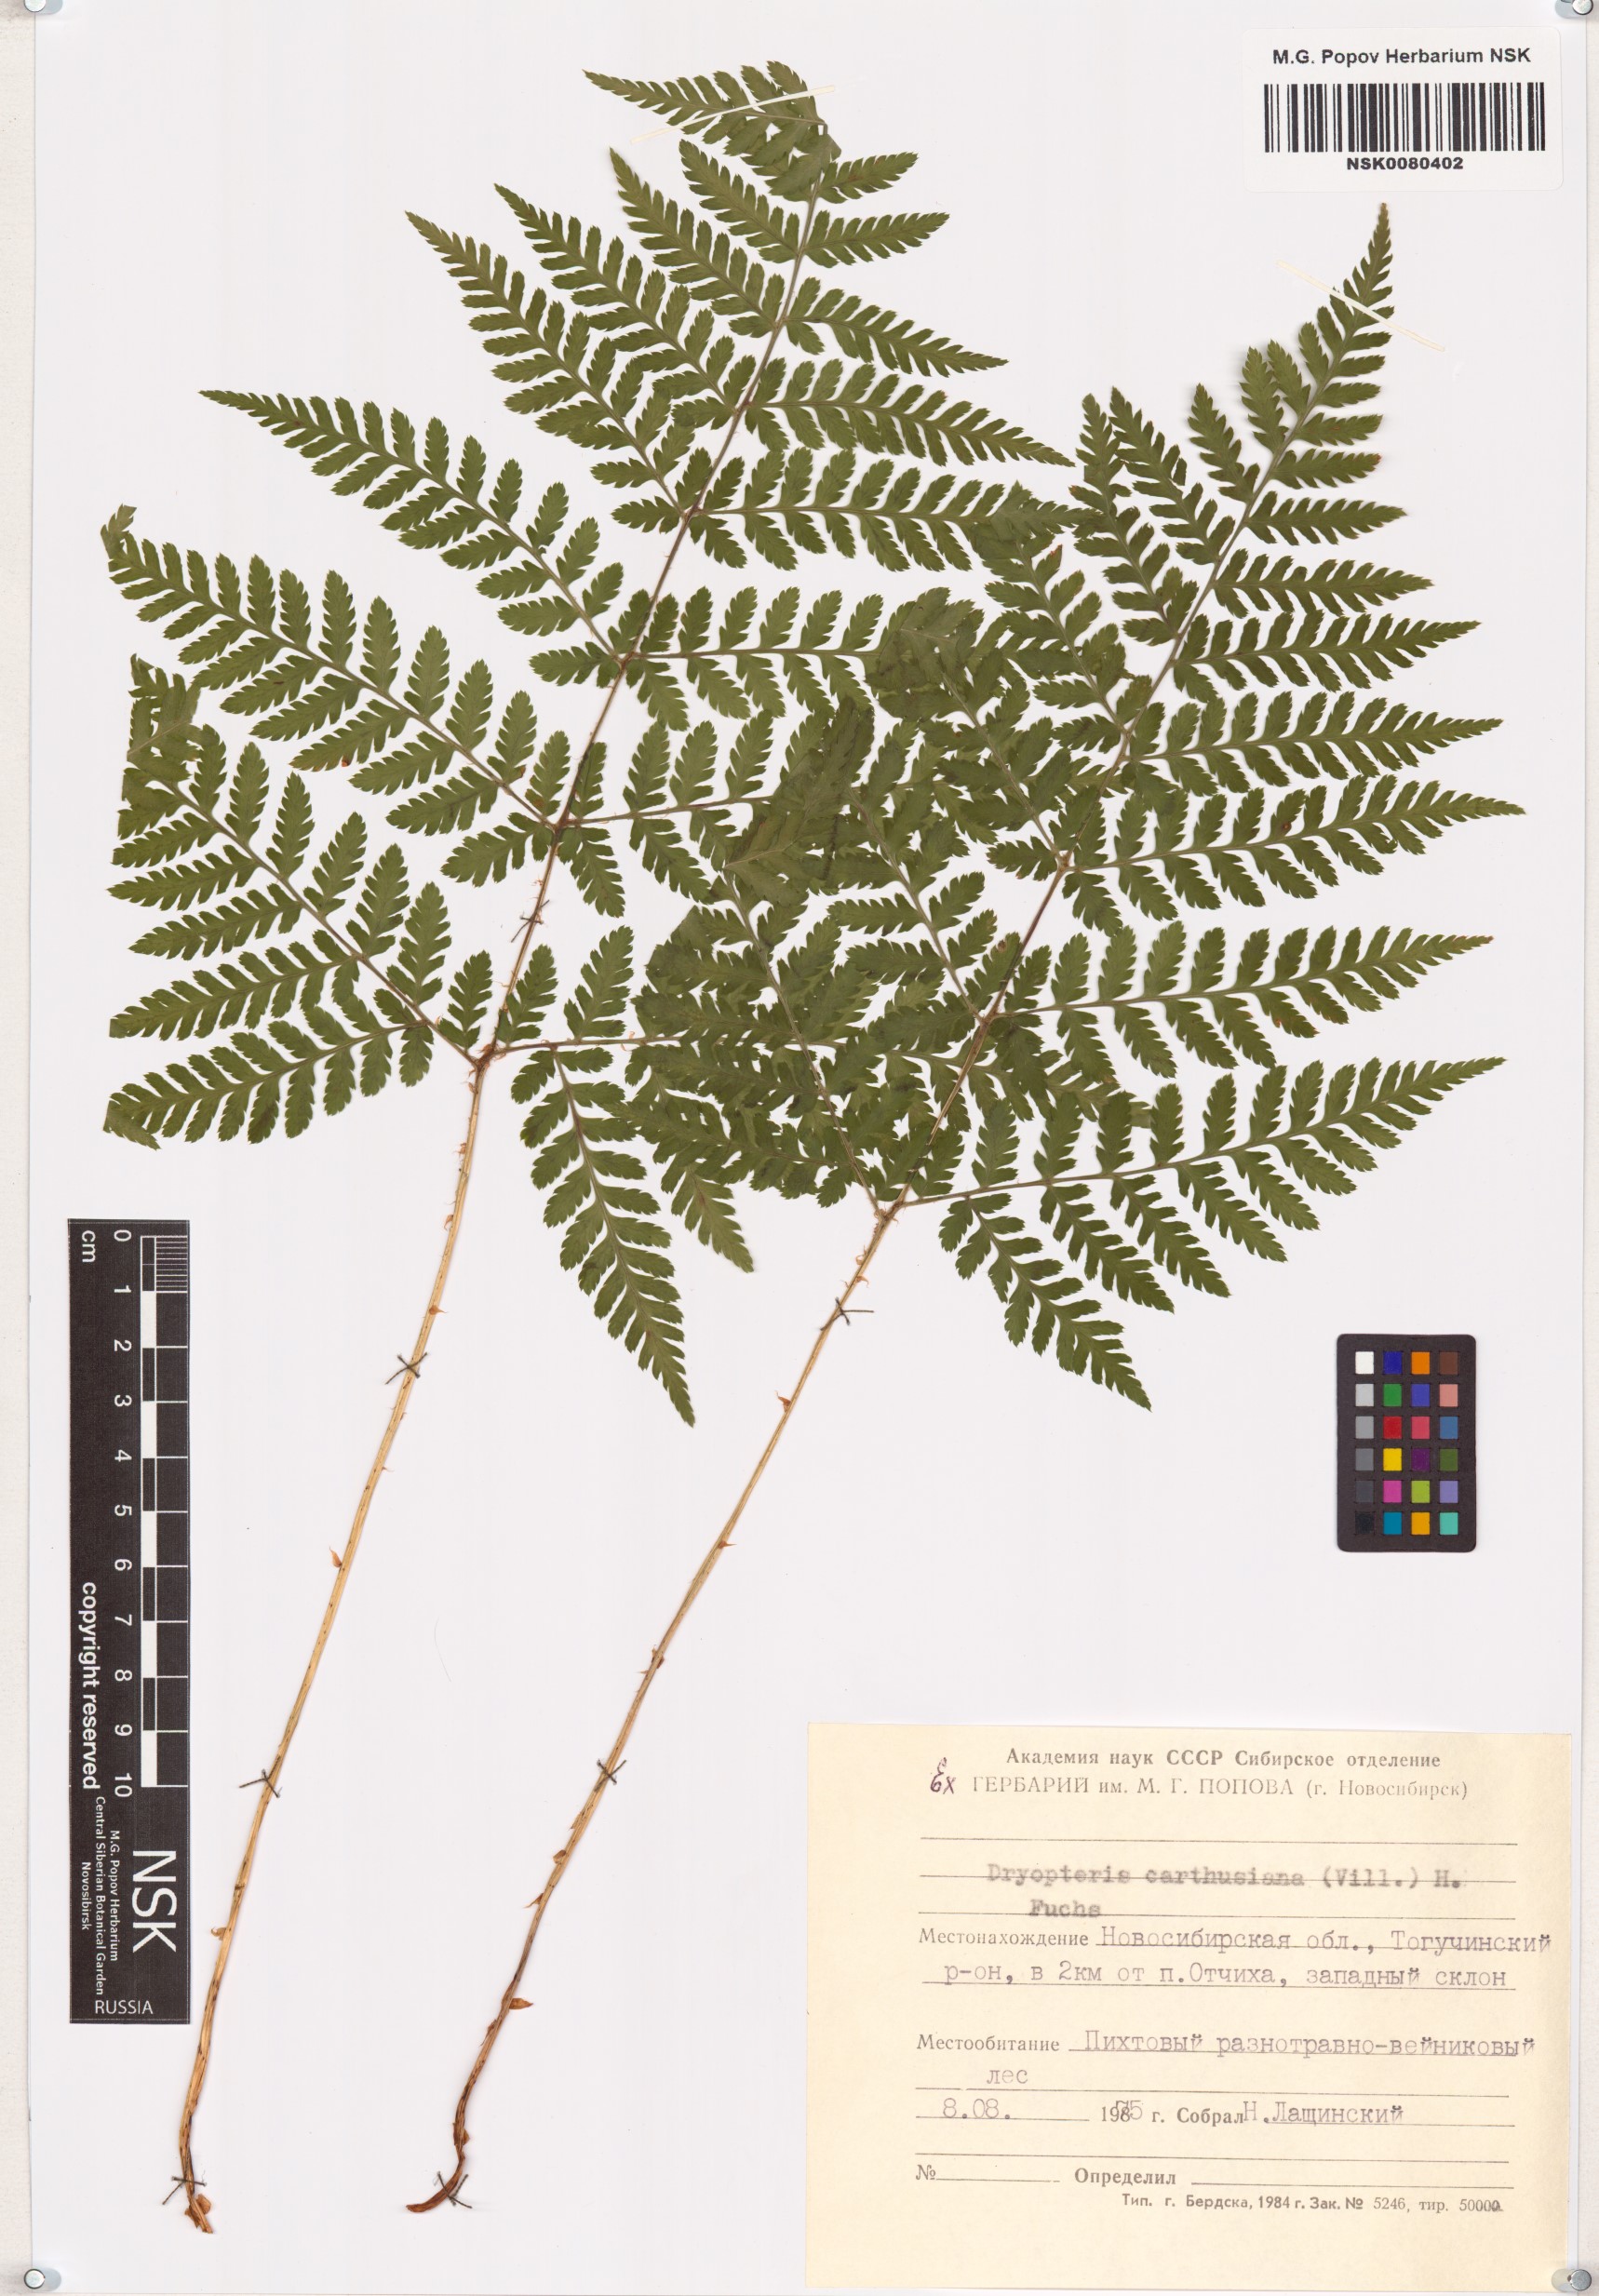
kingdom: Plantae
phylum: Tracheophyta
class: Polypodiopsida
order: Polypodiales
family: Dryopteridaceae
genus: Dryopteris
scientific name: Dryopteris carthusiana
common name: Narrow buckler-fern
